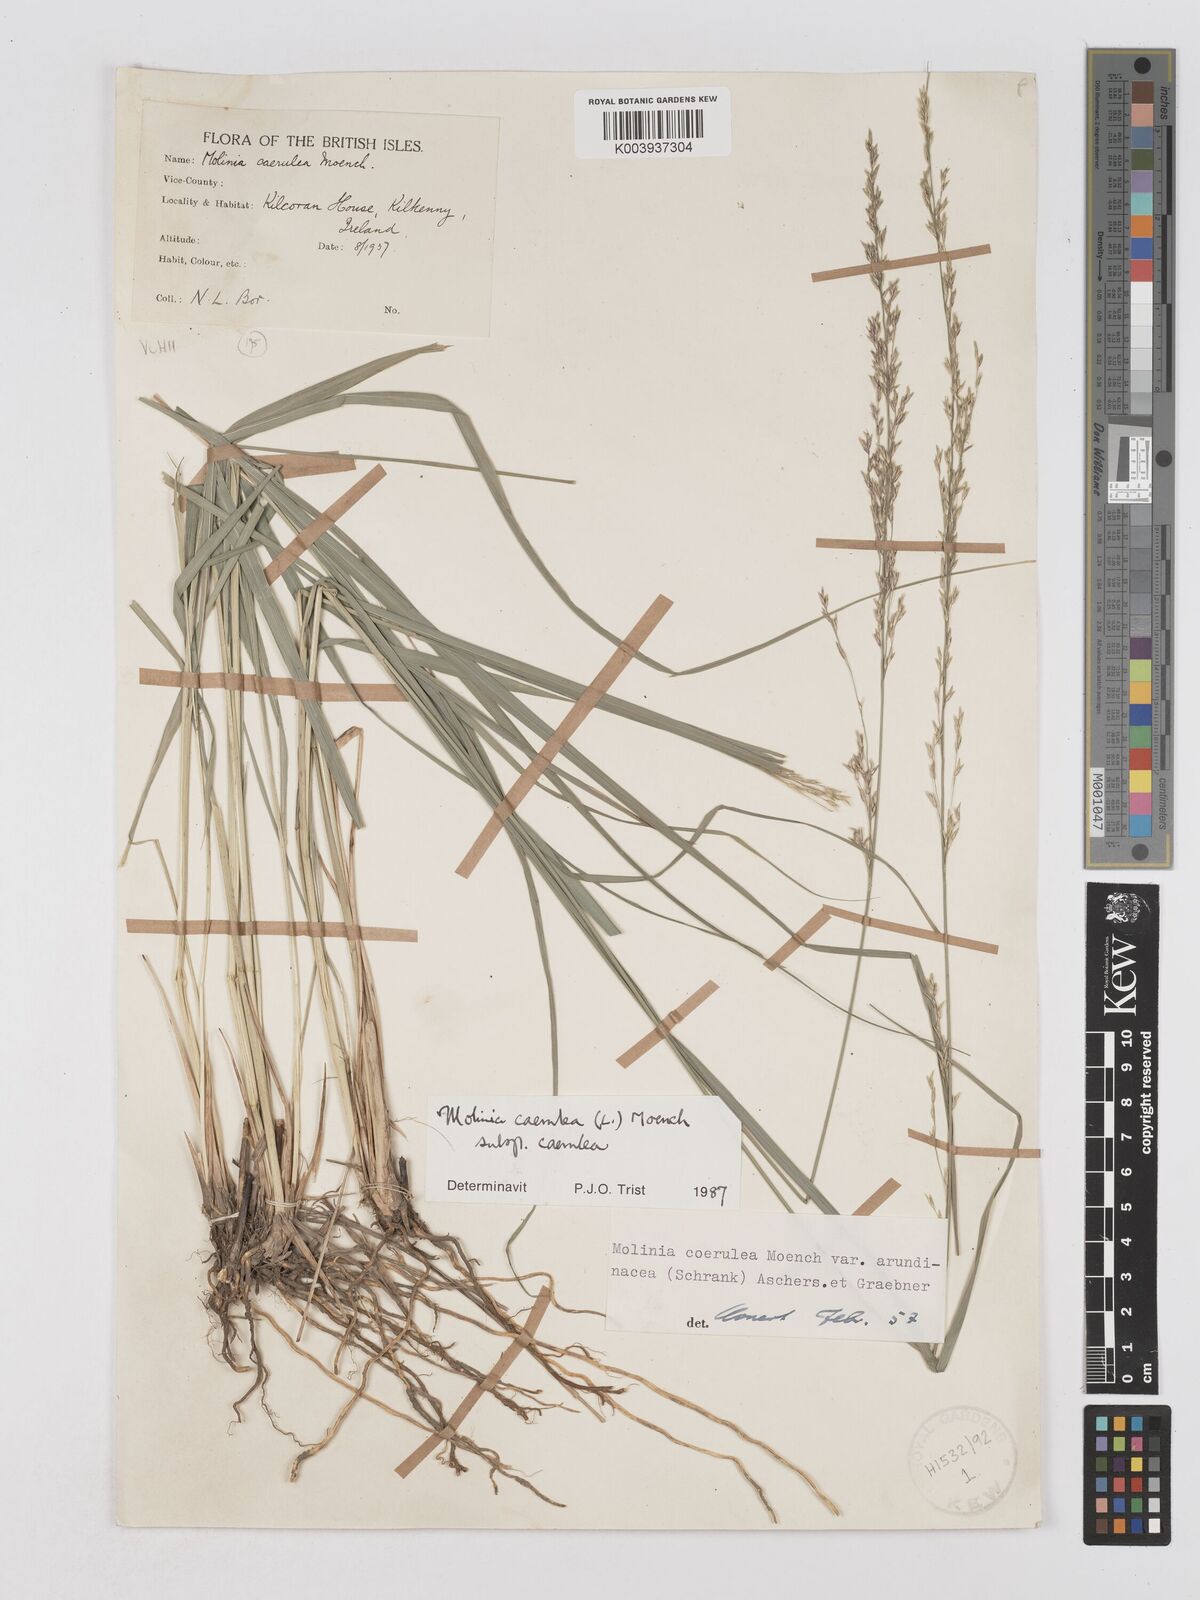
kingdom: Plantae
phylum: Tracheophyta
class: Liliopsida
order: Poales
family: Poaceae
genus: Molinia
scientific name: Molinia caerulea
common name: Purple moor-grass
